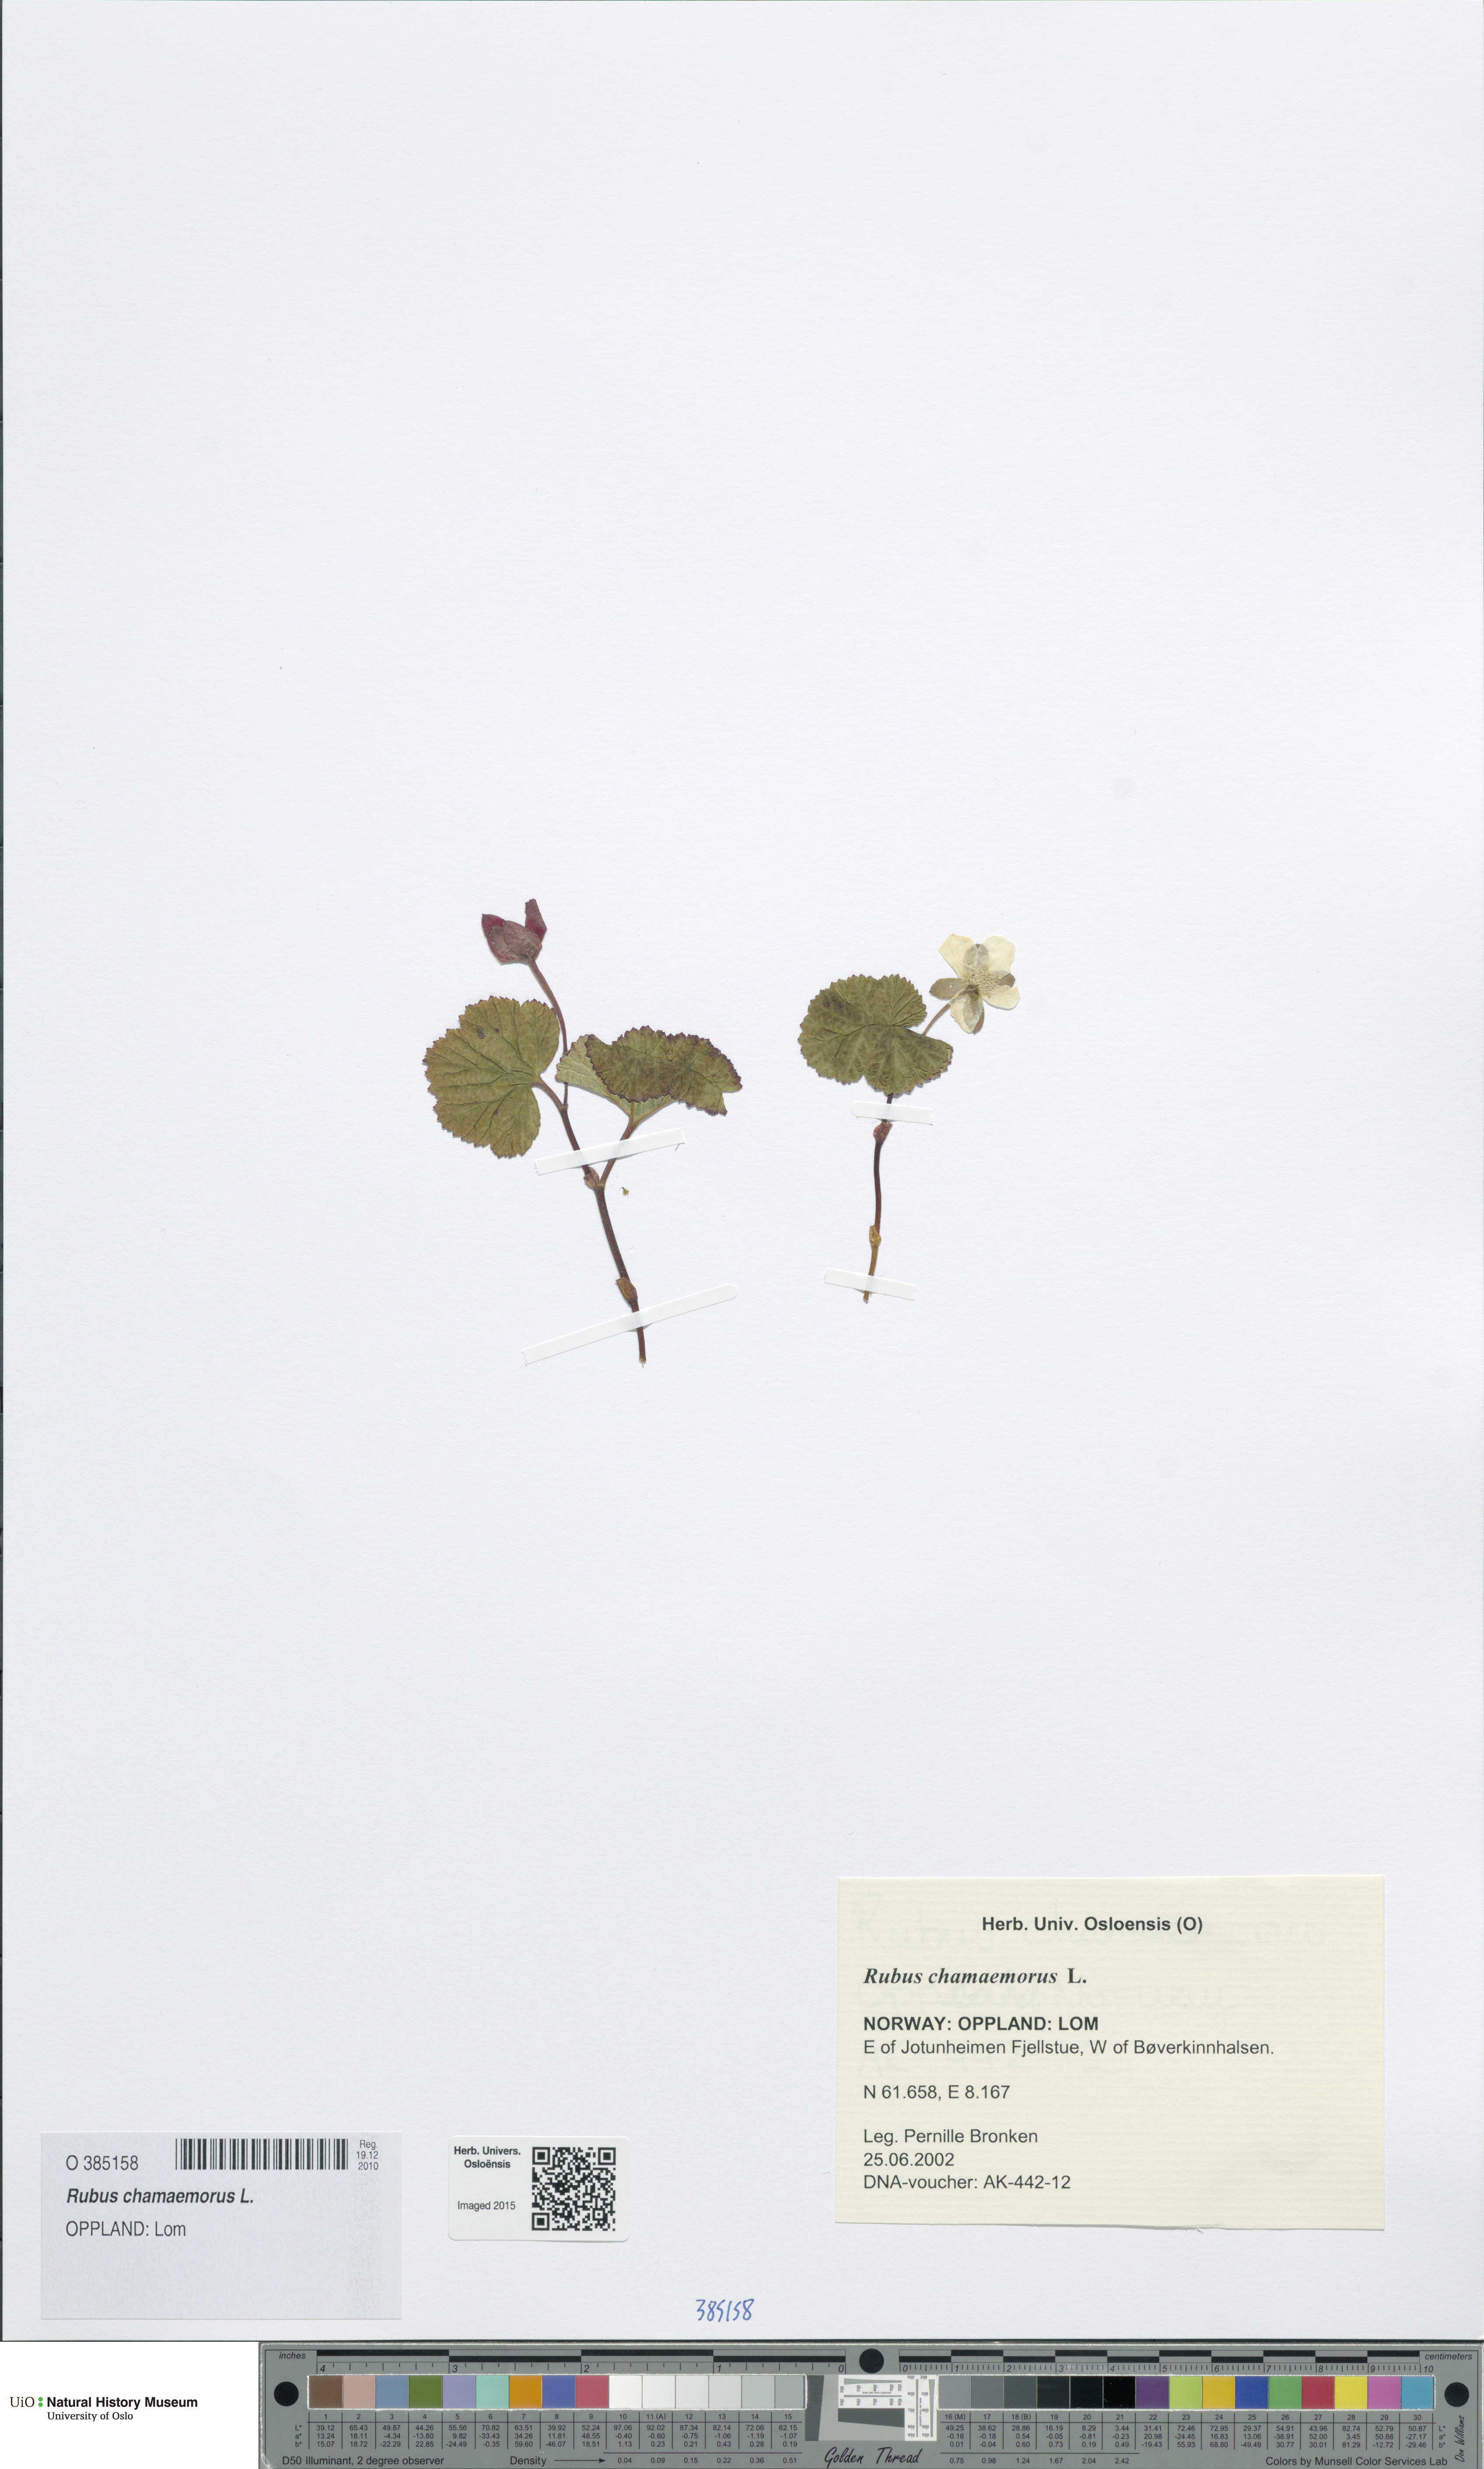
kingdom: Plantae
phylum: Tracheophyta
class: Magnoliopsida
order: Rosales
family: Rosaceae
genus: Rubus
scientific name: Rubus chamaemorus
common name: Cloudberry
